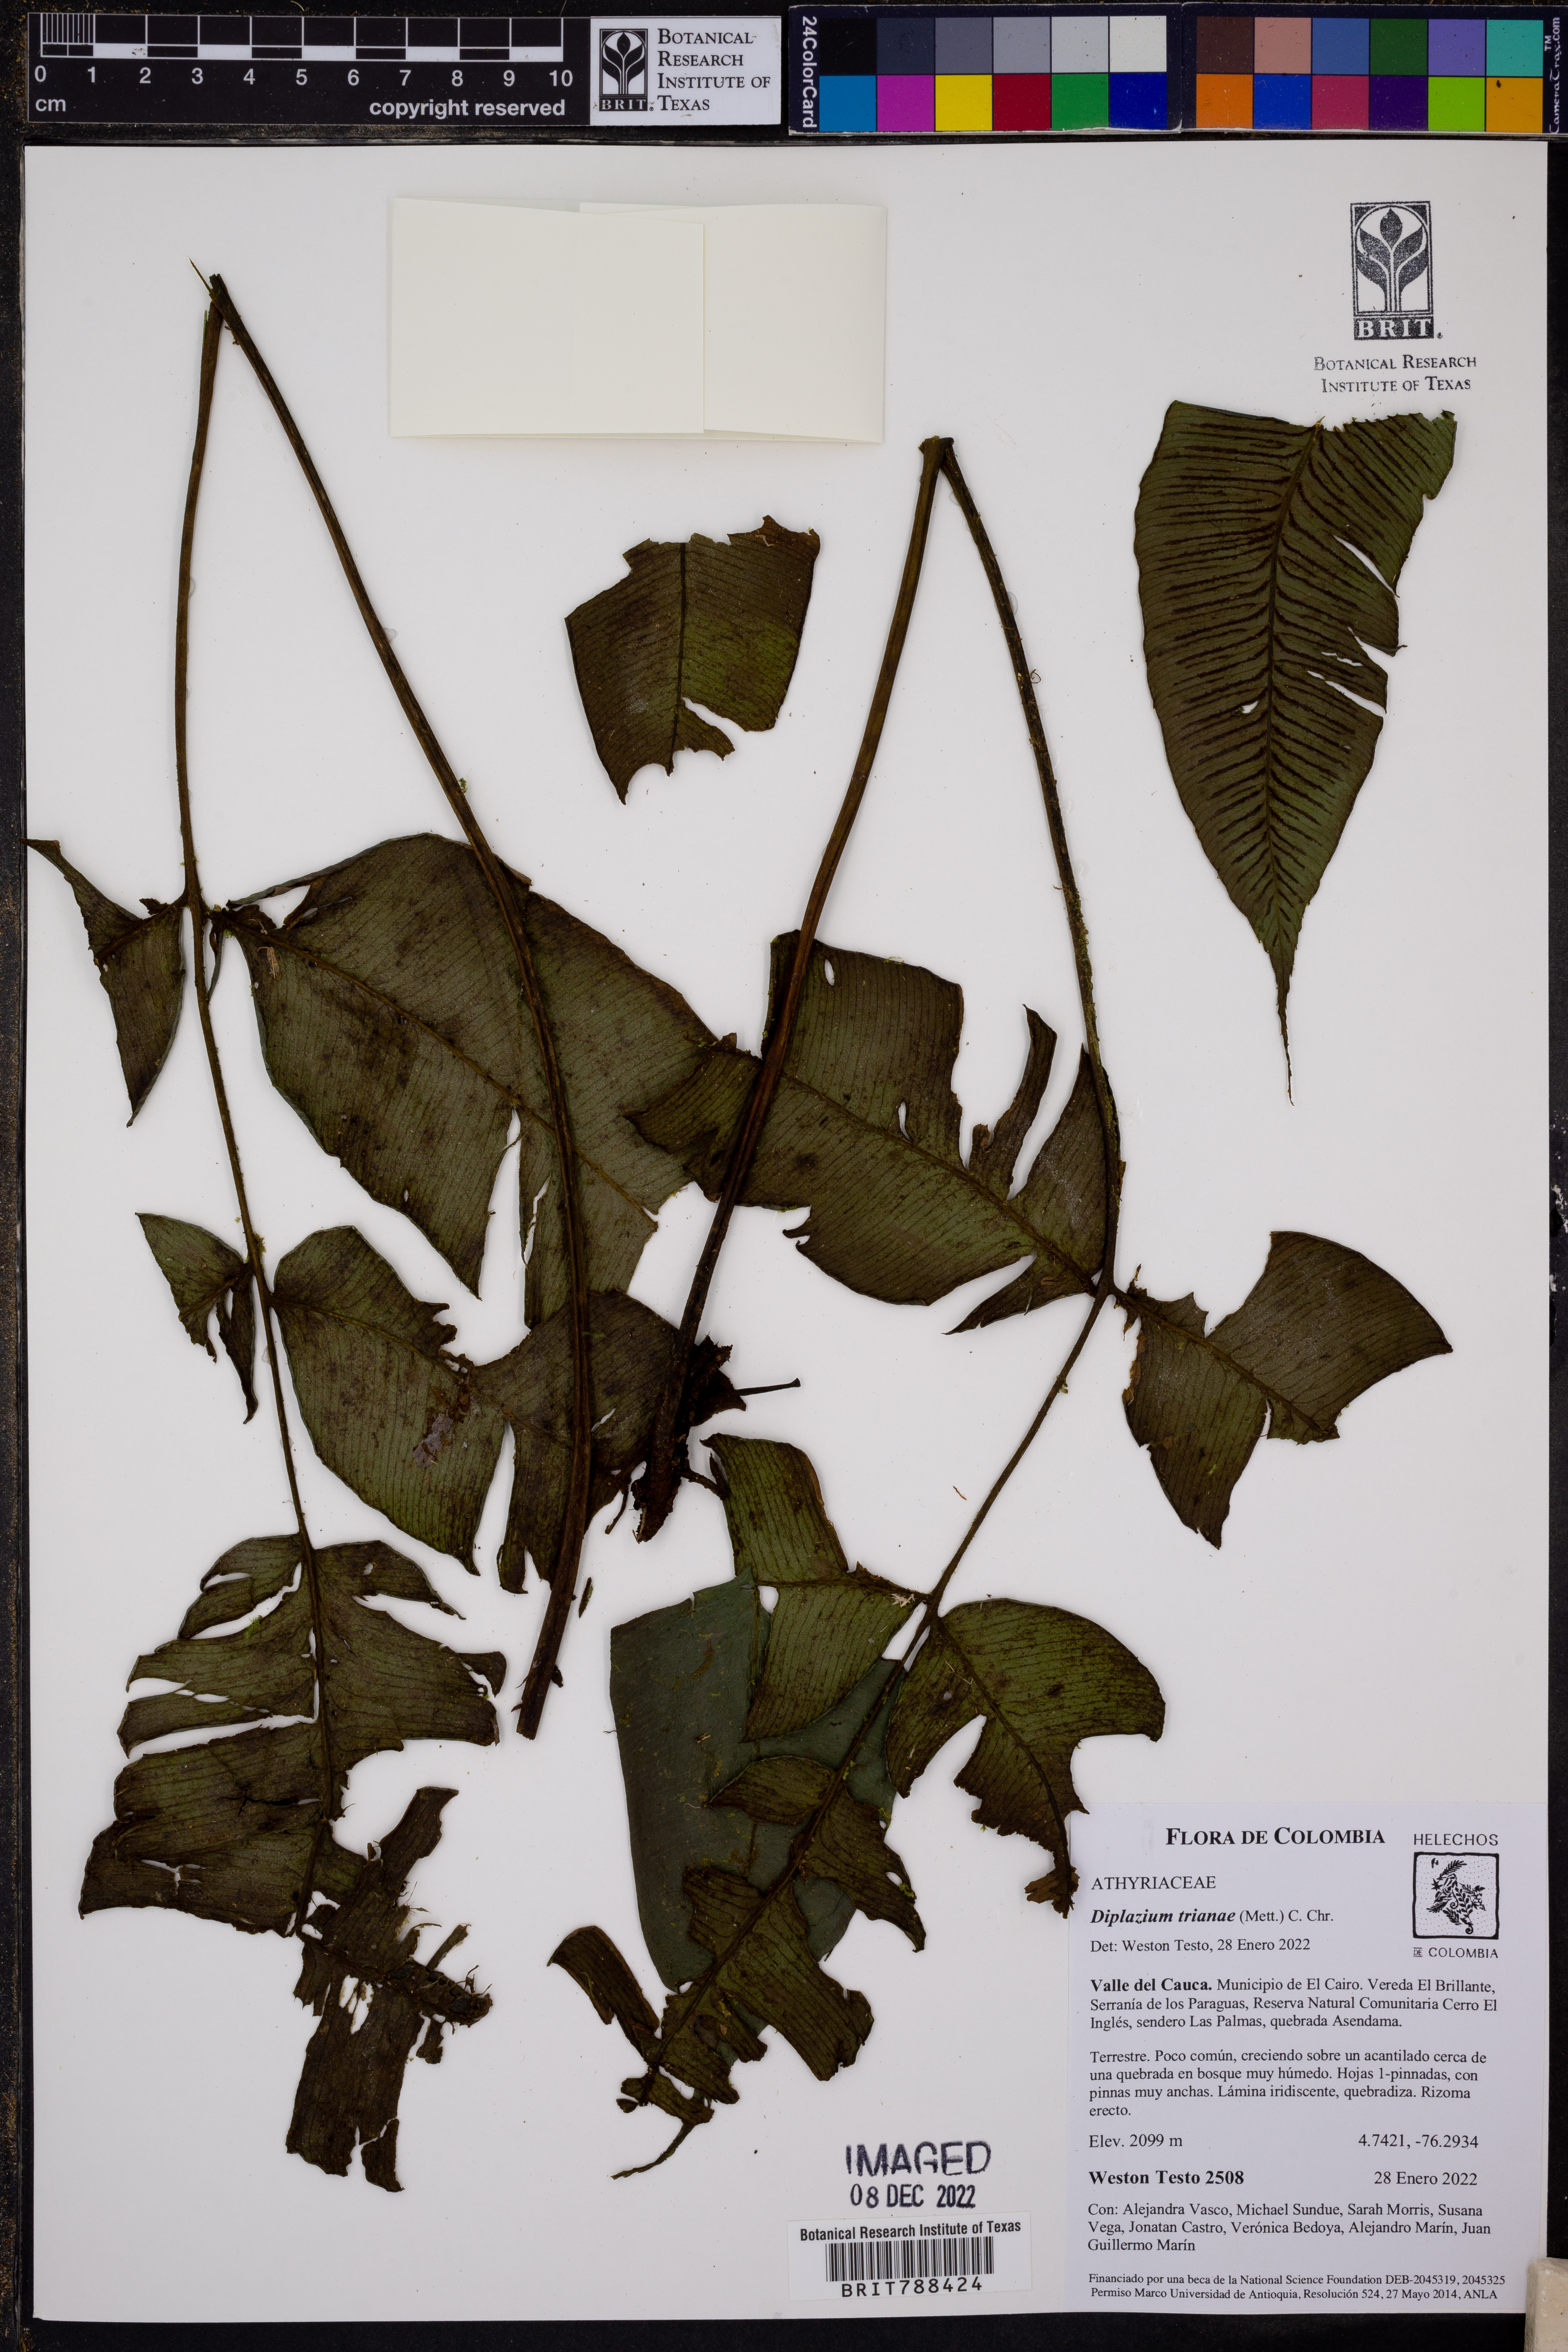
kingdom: Plantae
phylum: Tracheophyta
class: Polypodiopsida
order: Polypodiales
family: Athyriaceae
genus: Diplazium
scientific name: Diplazium trianae
